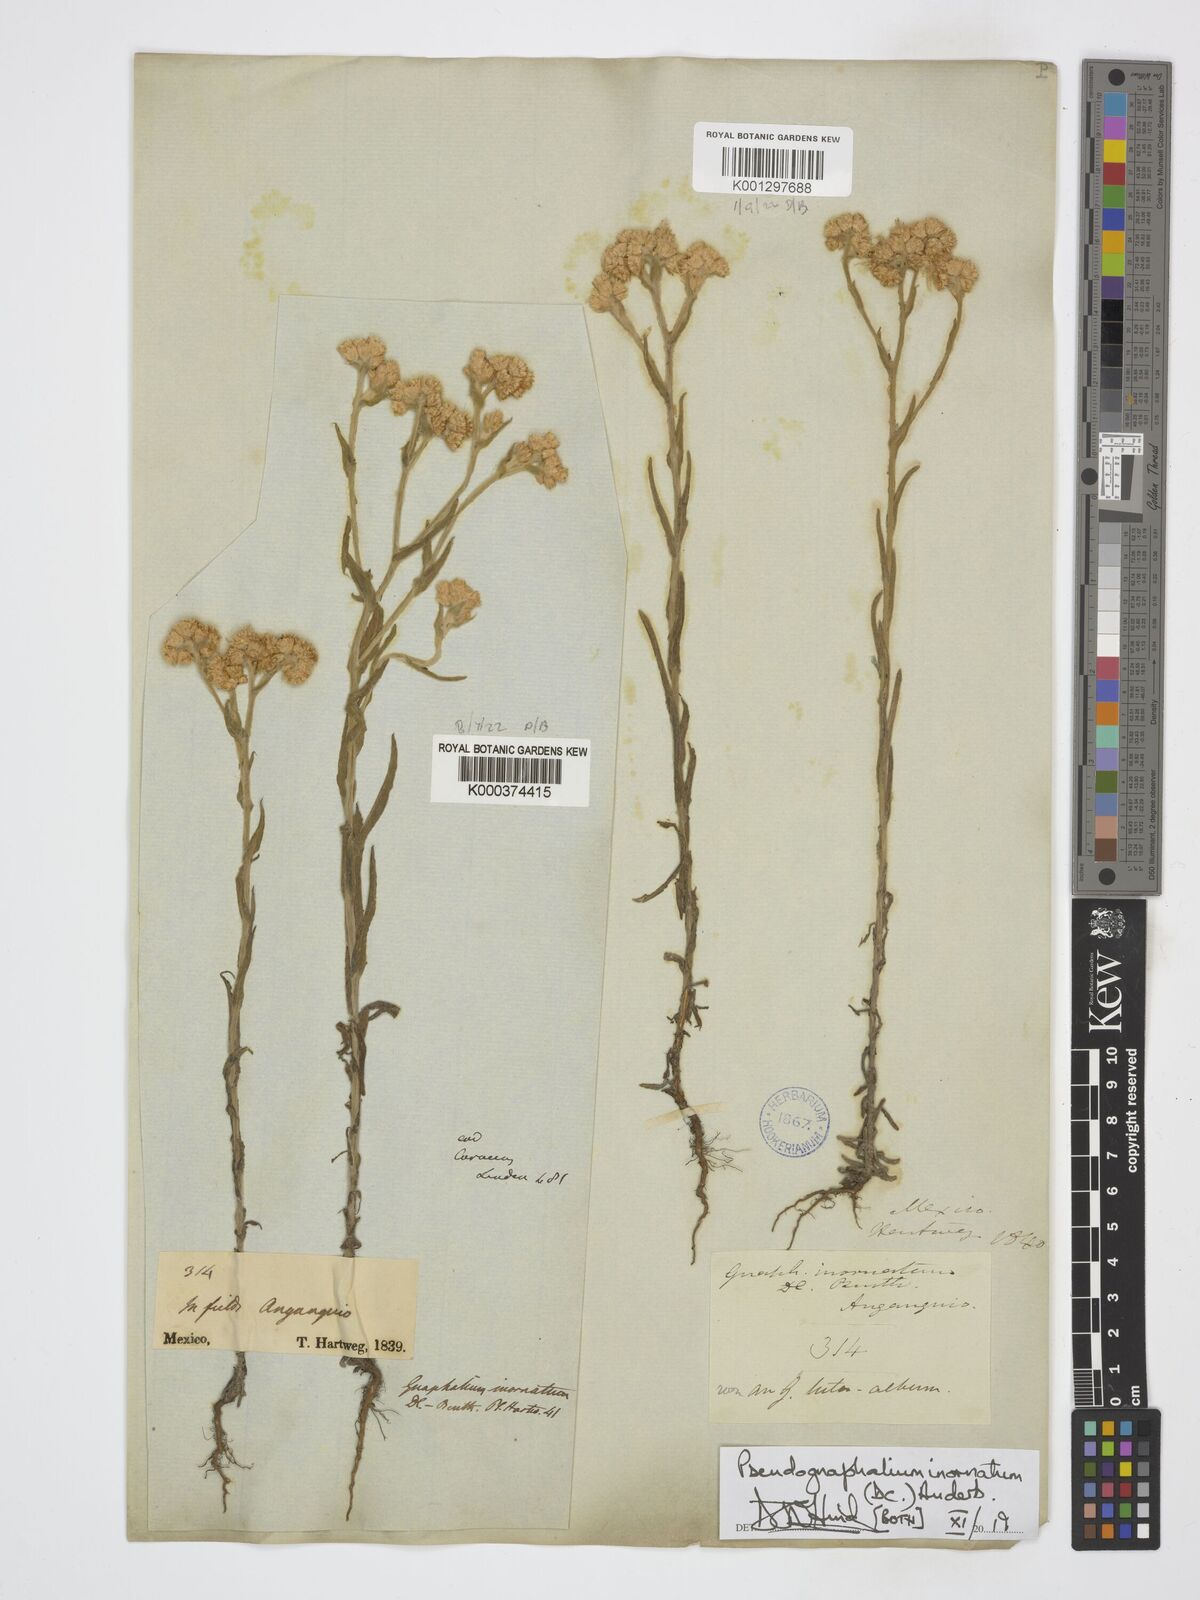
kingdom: Plantae
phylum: Tracheophyta
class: Magnoliopsida
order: Asterales
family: Asteraceae
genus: Pseudognaphalium
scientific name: Pseudognaphalium inornatum
